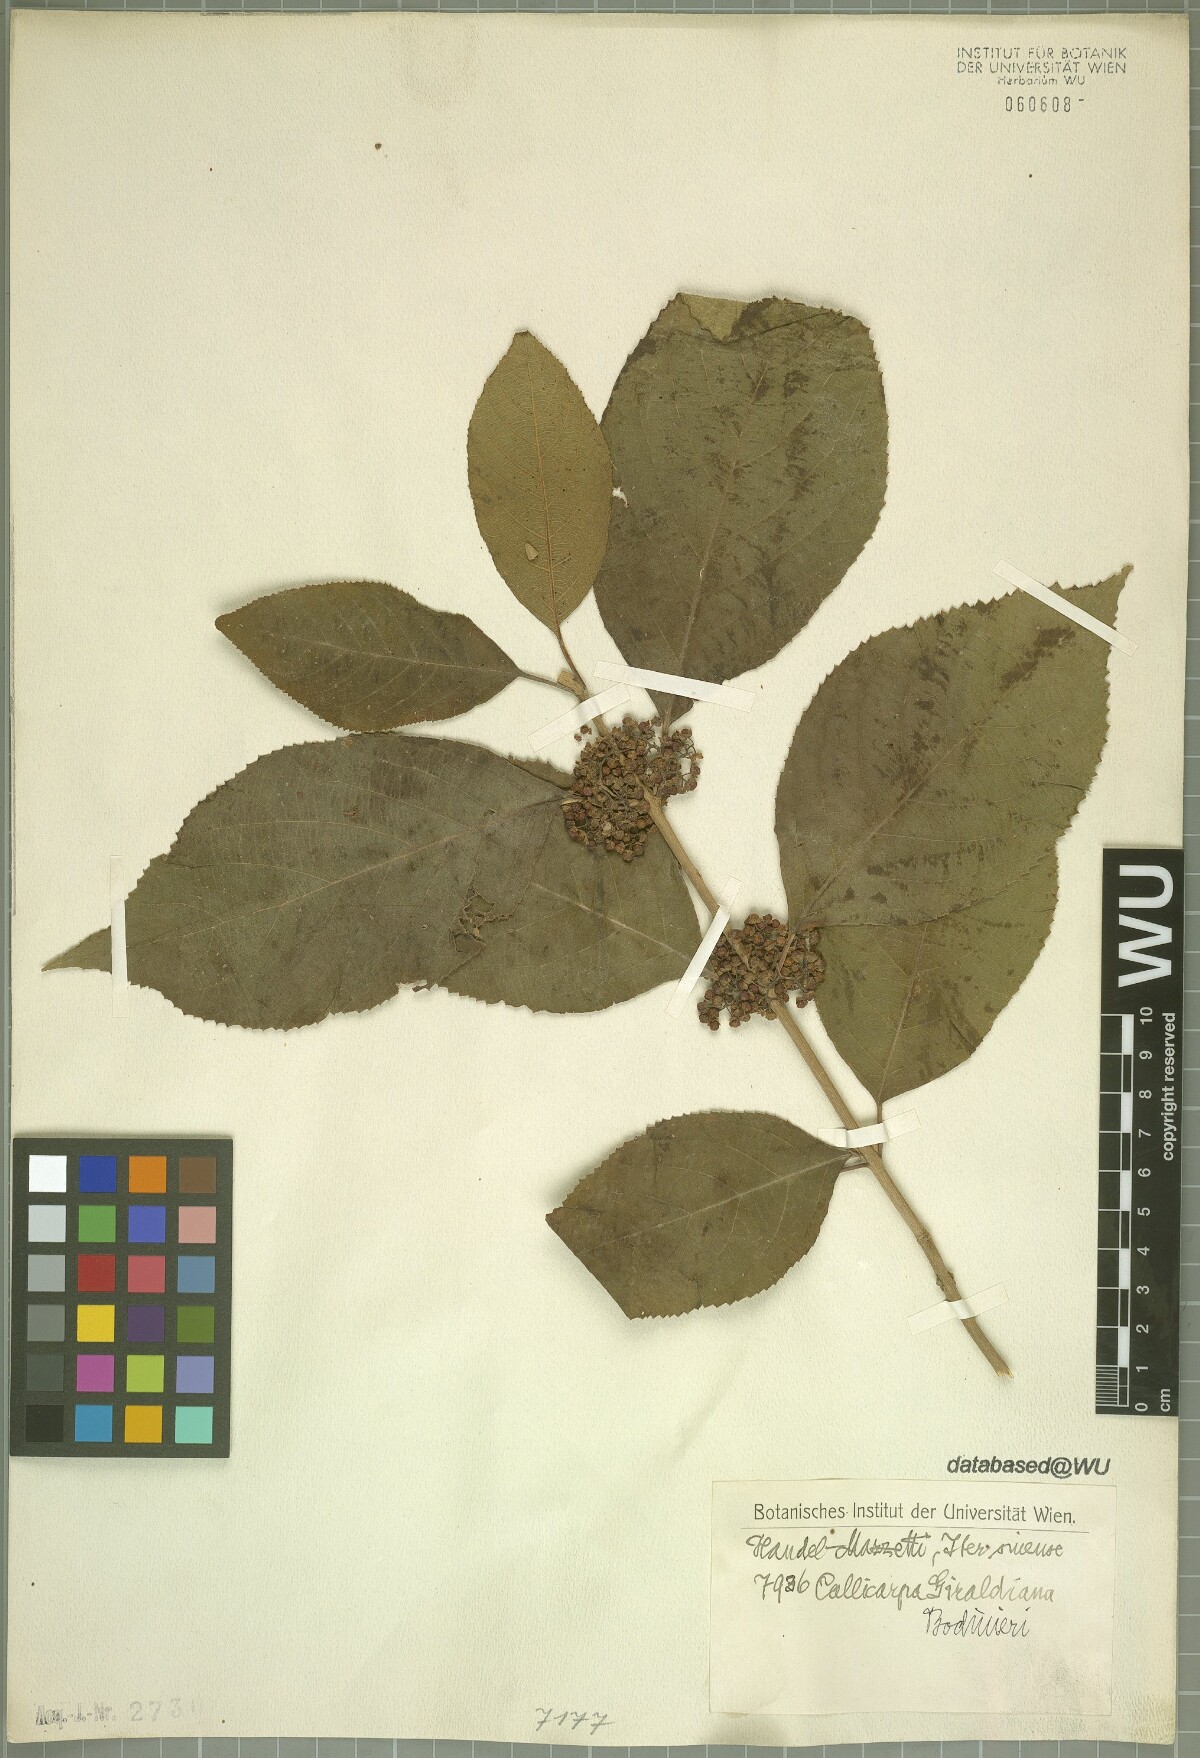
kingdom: Plantae
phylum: Tracheophyta
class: Magnoliopsida
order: Lamiales
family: Lamiaceae
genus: Callicarpa
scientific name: Callicarpa bodinieri
